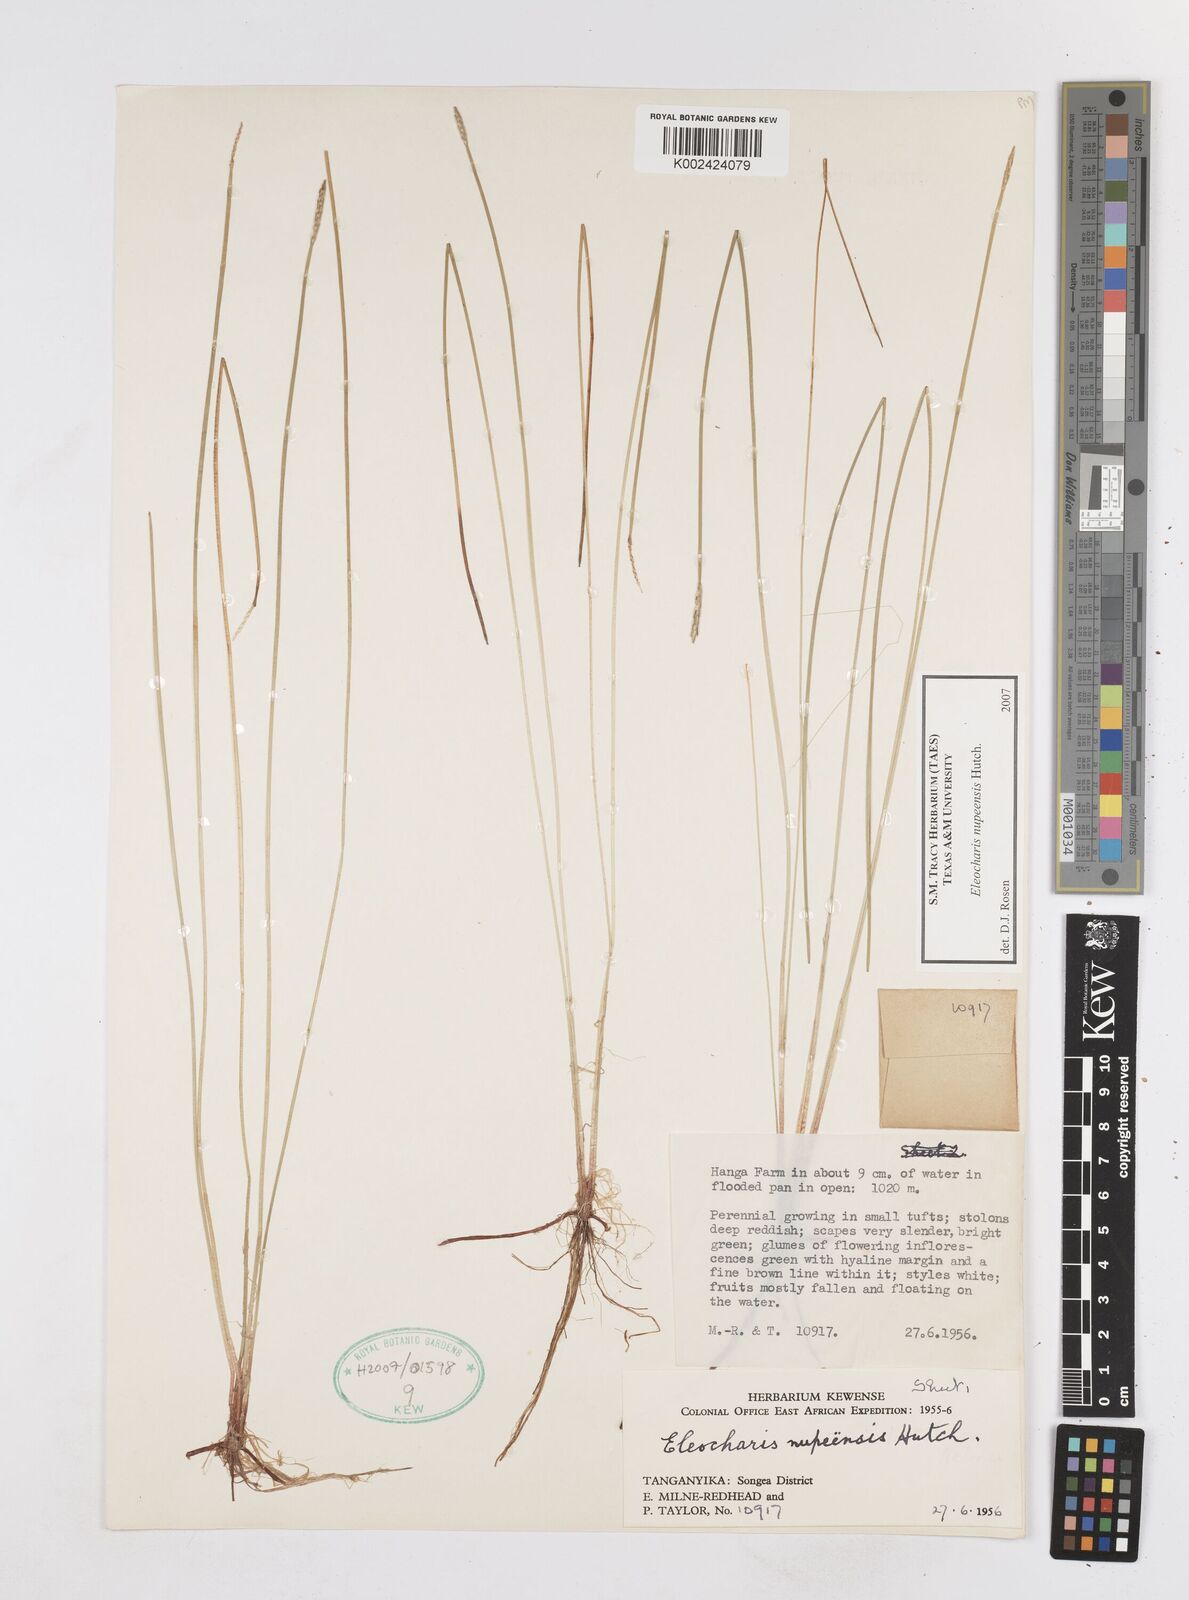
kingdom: Plantae
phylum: Tracheophyta
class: Liliopsida
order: Poales
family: Cyperaceae
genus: Eleocharis
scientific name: Eleocharis nupeensis
